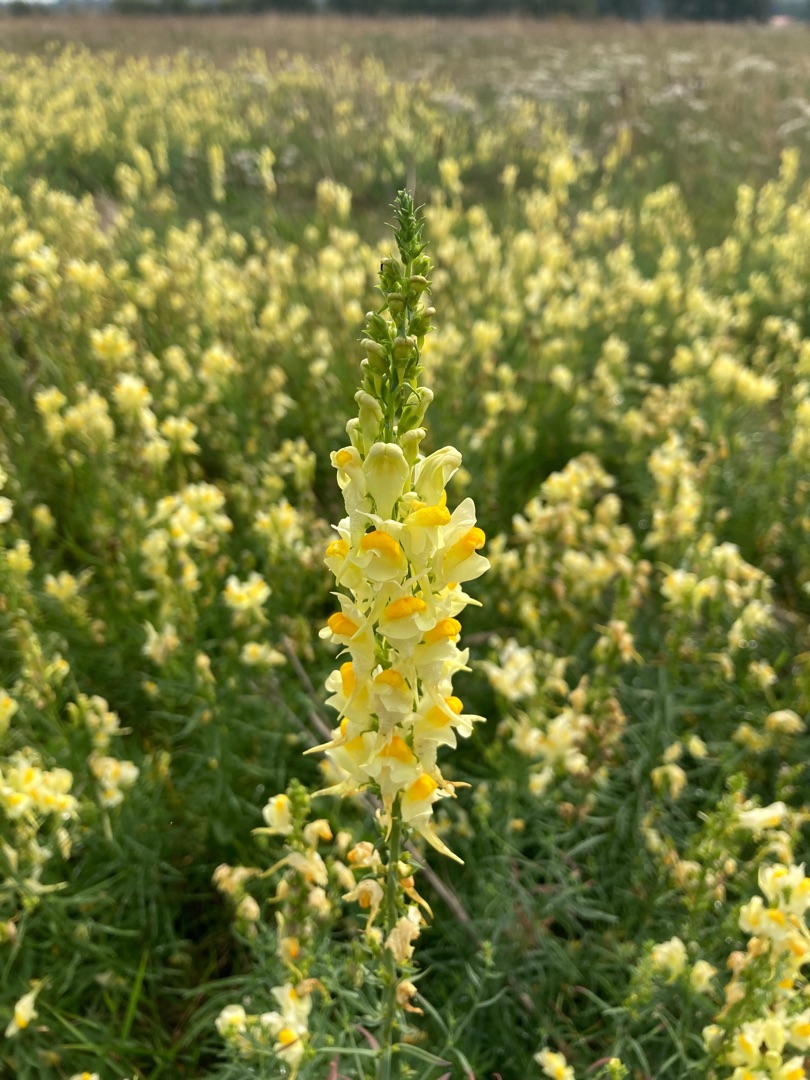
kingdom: Plantae
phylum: Tracheophyta
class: Magnoliopsida
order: Lamiales
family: Plantaginaceae
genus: Linaria
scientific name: Linaria vulgaris
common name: Almindelig torskemund
